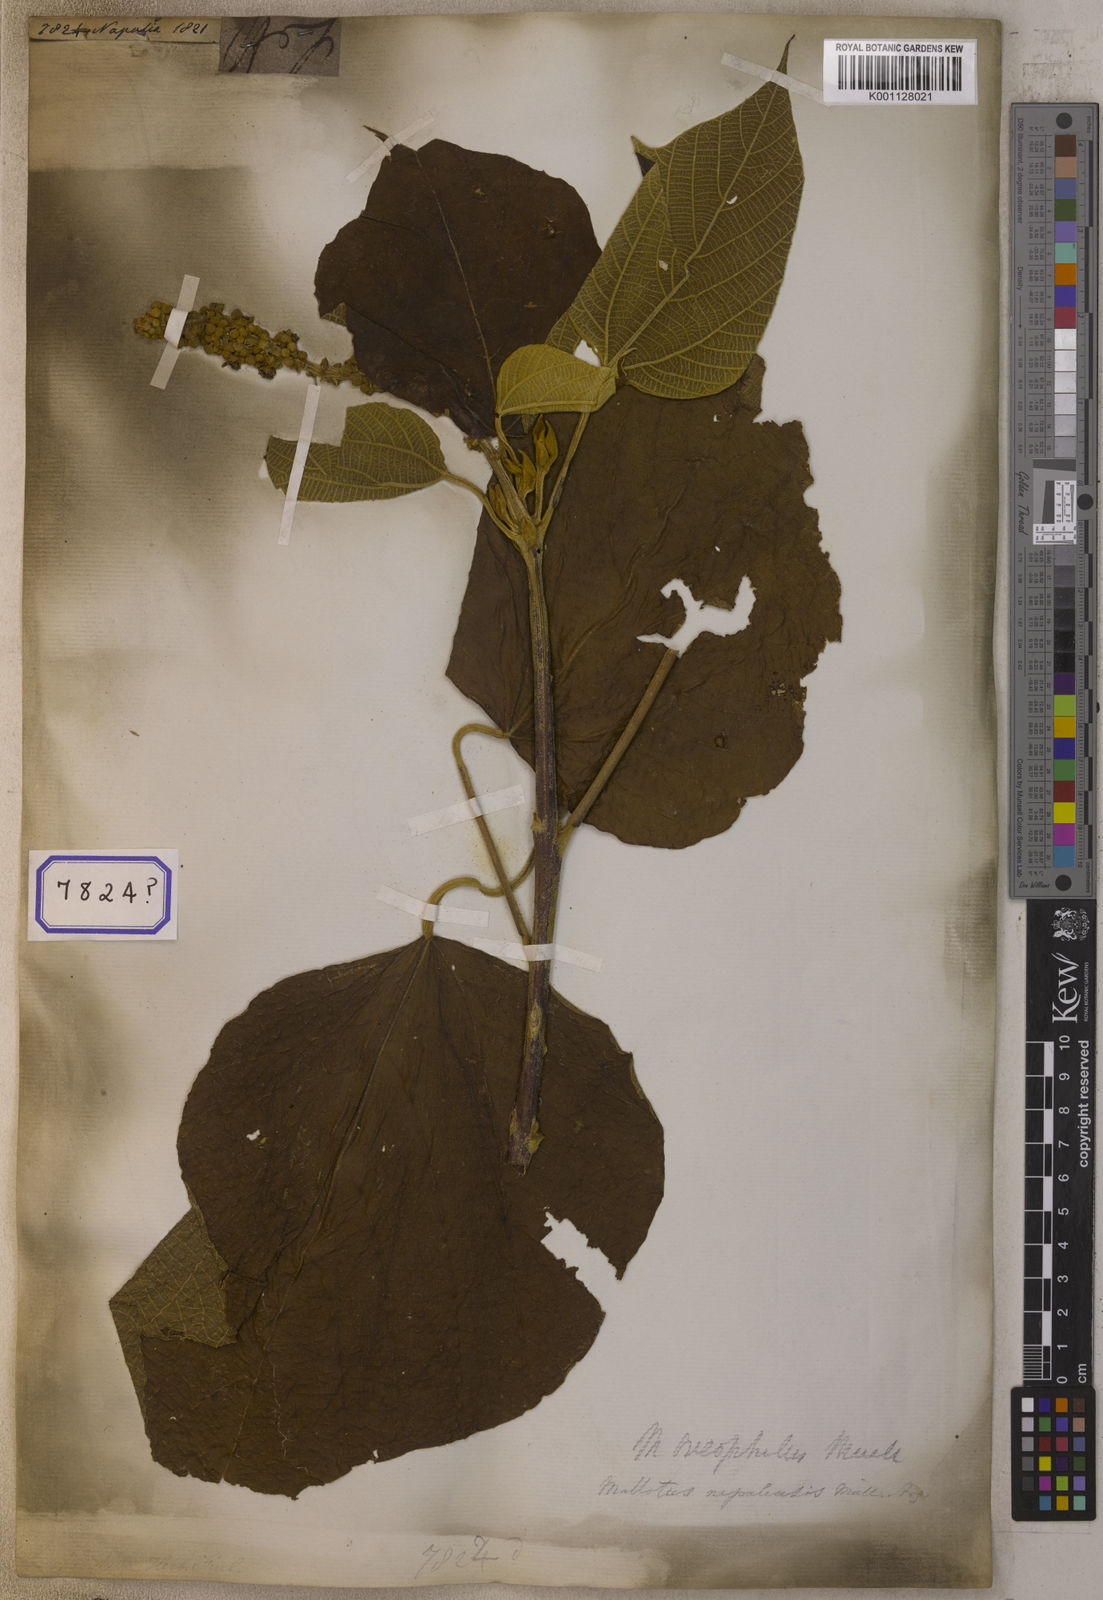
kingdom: Plantae
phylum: Tracheophyta
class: Magnoliopsida
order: Malpighiales
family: Euphorbiaceae
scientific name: Euphorbiaceae
